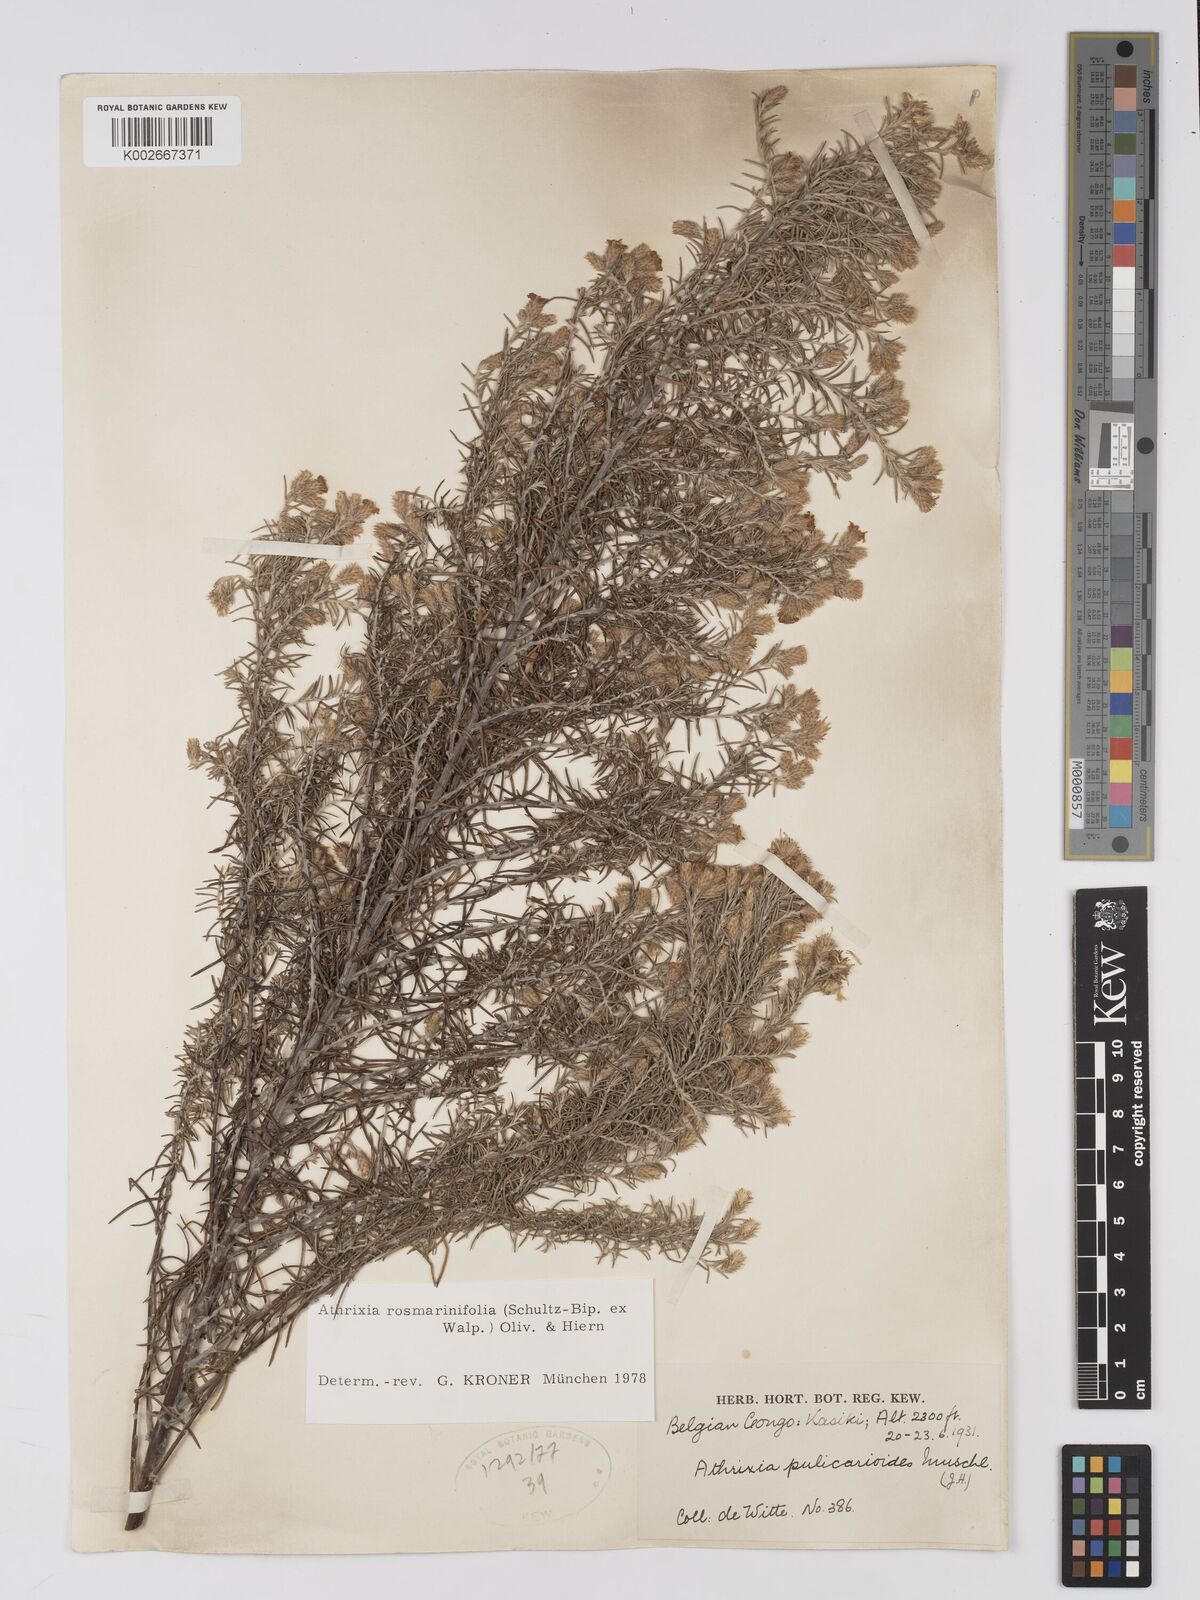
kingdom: Plantae
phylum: Tracheophyta
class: Magnoliopsida
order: Asterales
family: Asteraceae
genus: Athrixia
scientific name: Athrixia
